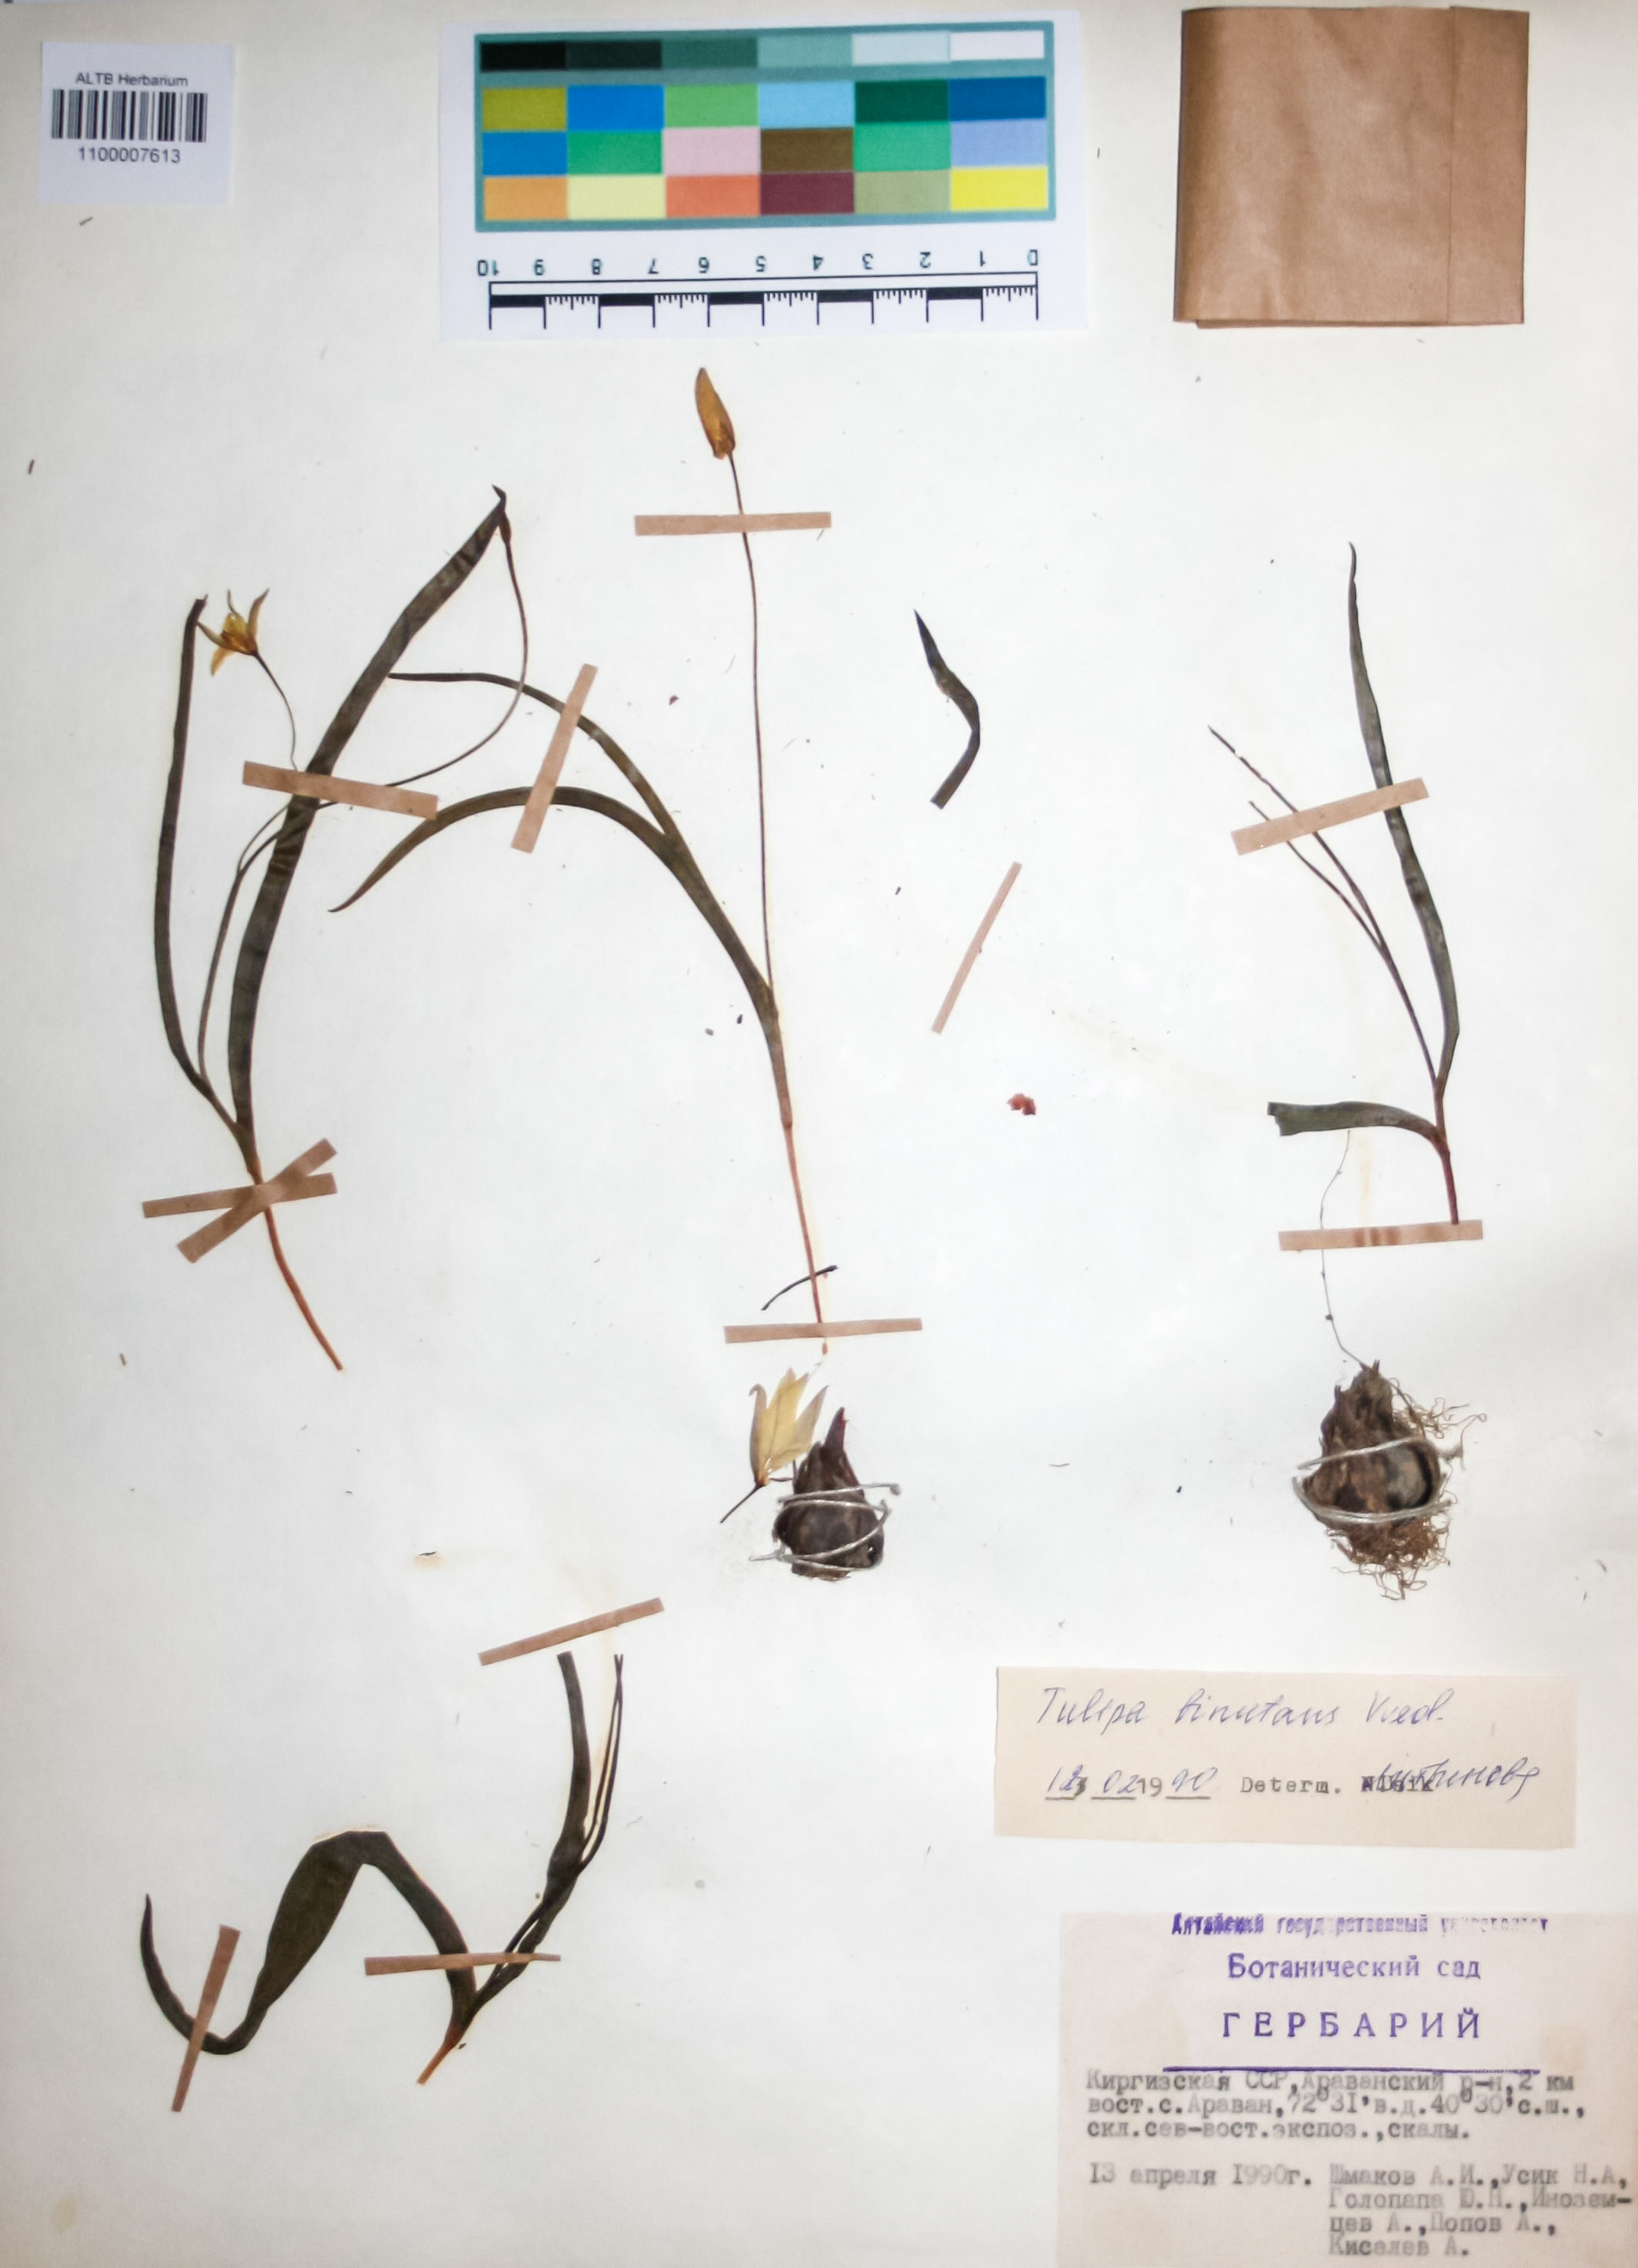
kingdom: Plantae
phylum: Tracheophyta
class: Liliopsida
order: Liliales
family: Liliaceae
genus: Tulipa
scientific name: Tulipa biflora
